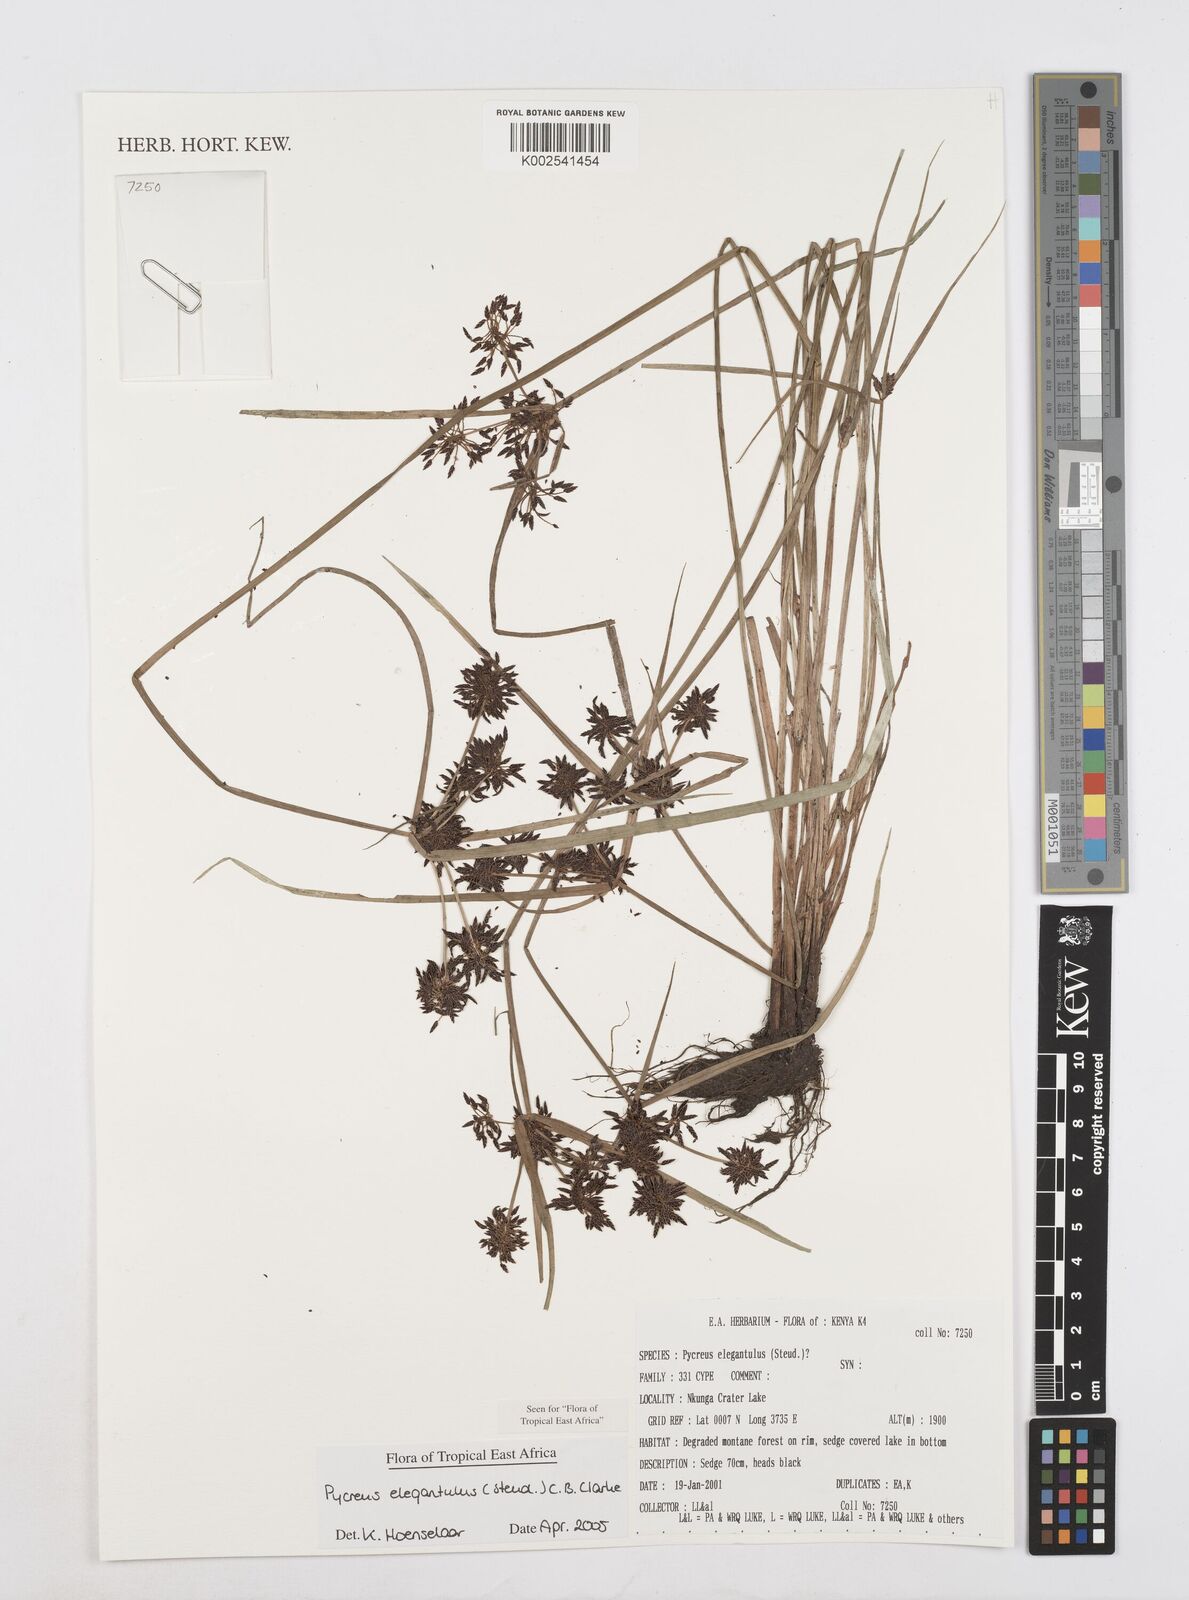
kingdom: Plantae
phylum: Tracheophyta
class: Liliopsida
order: Poales
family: Cyperaceae
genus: Cyperus
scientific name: Cyperus elegantulus
